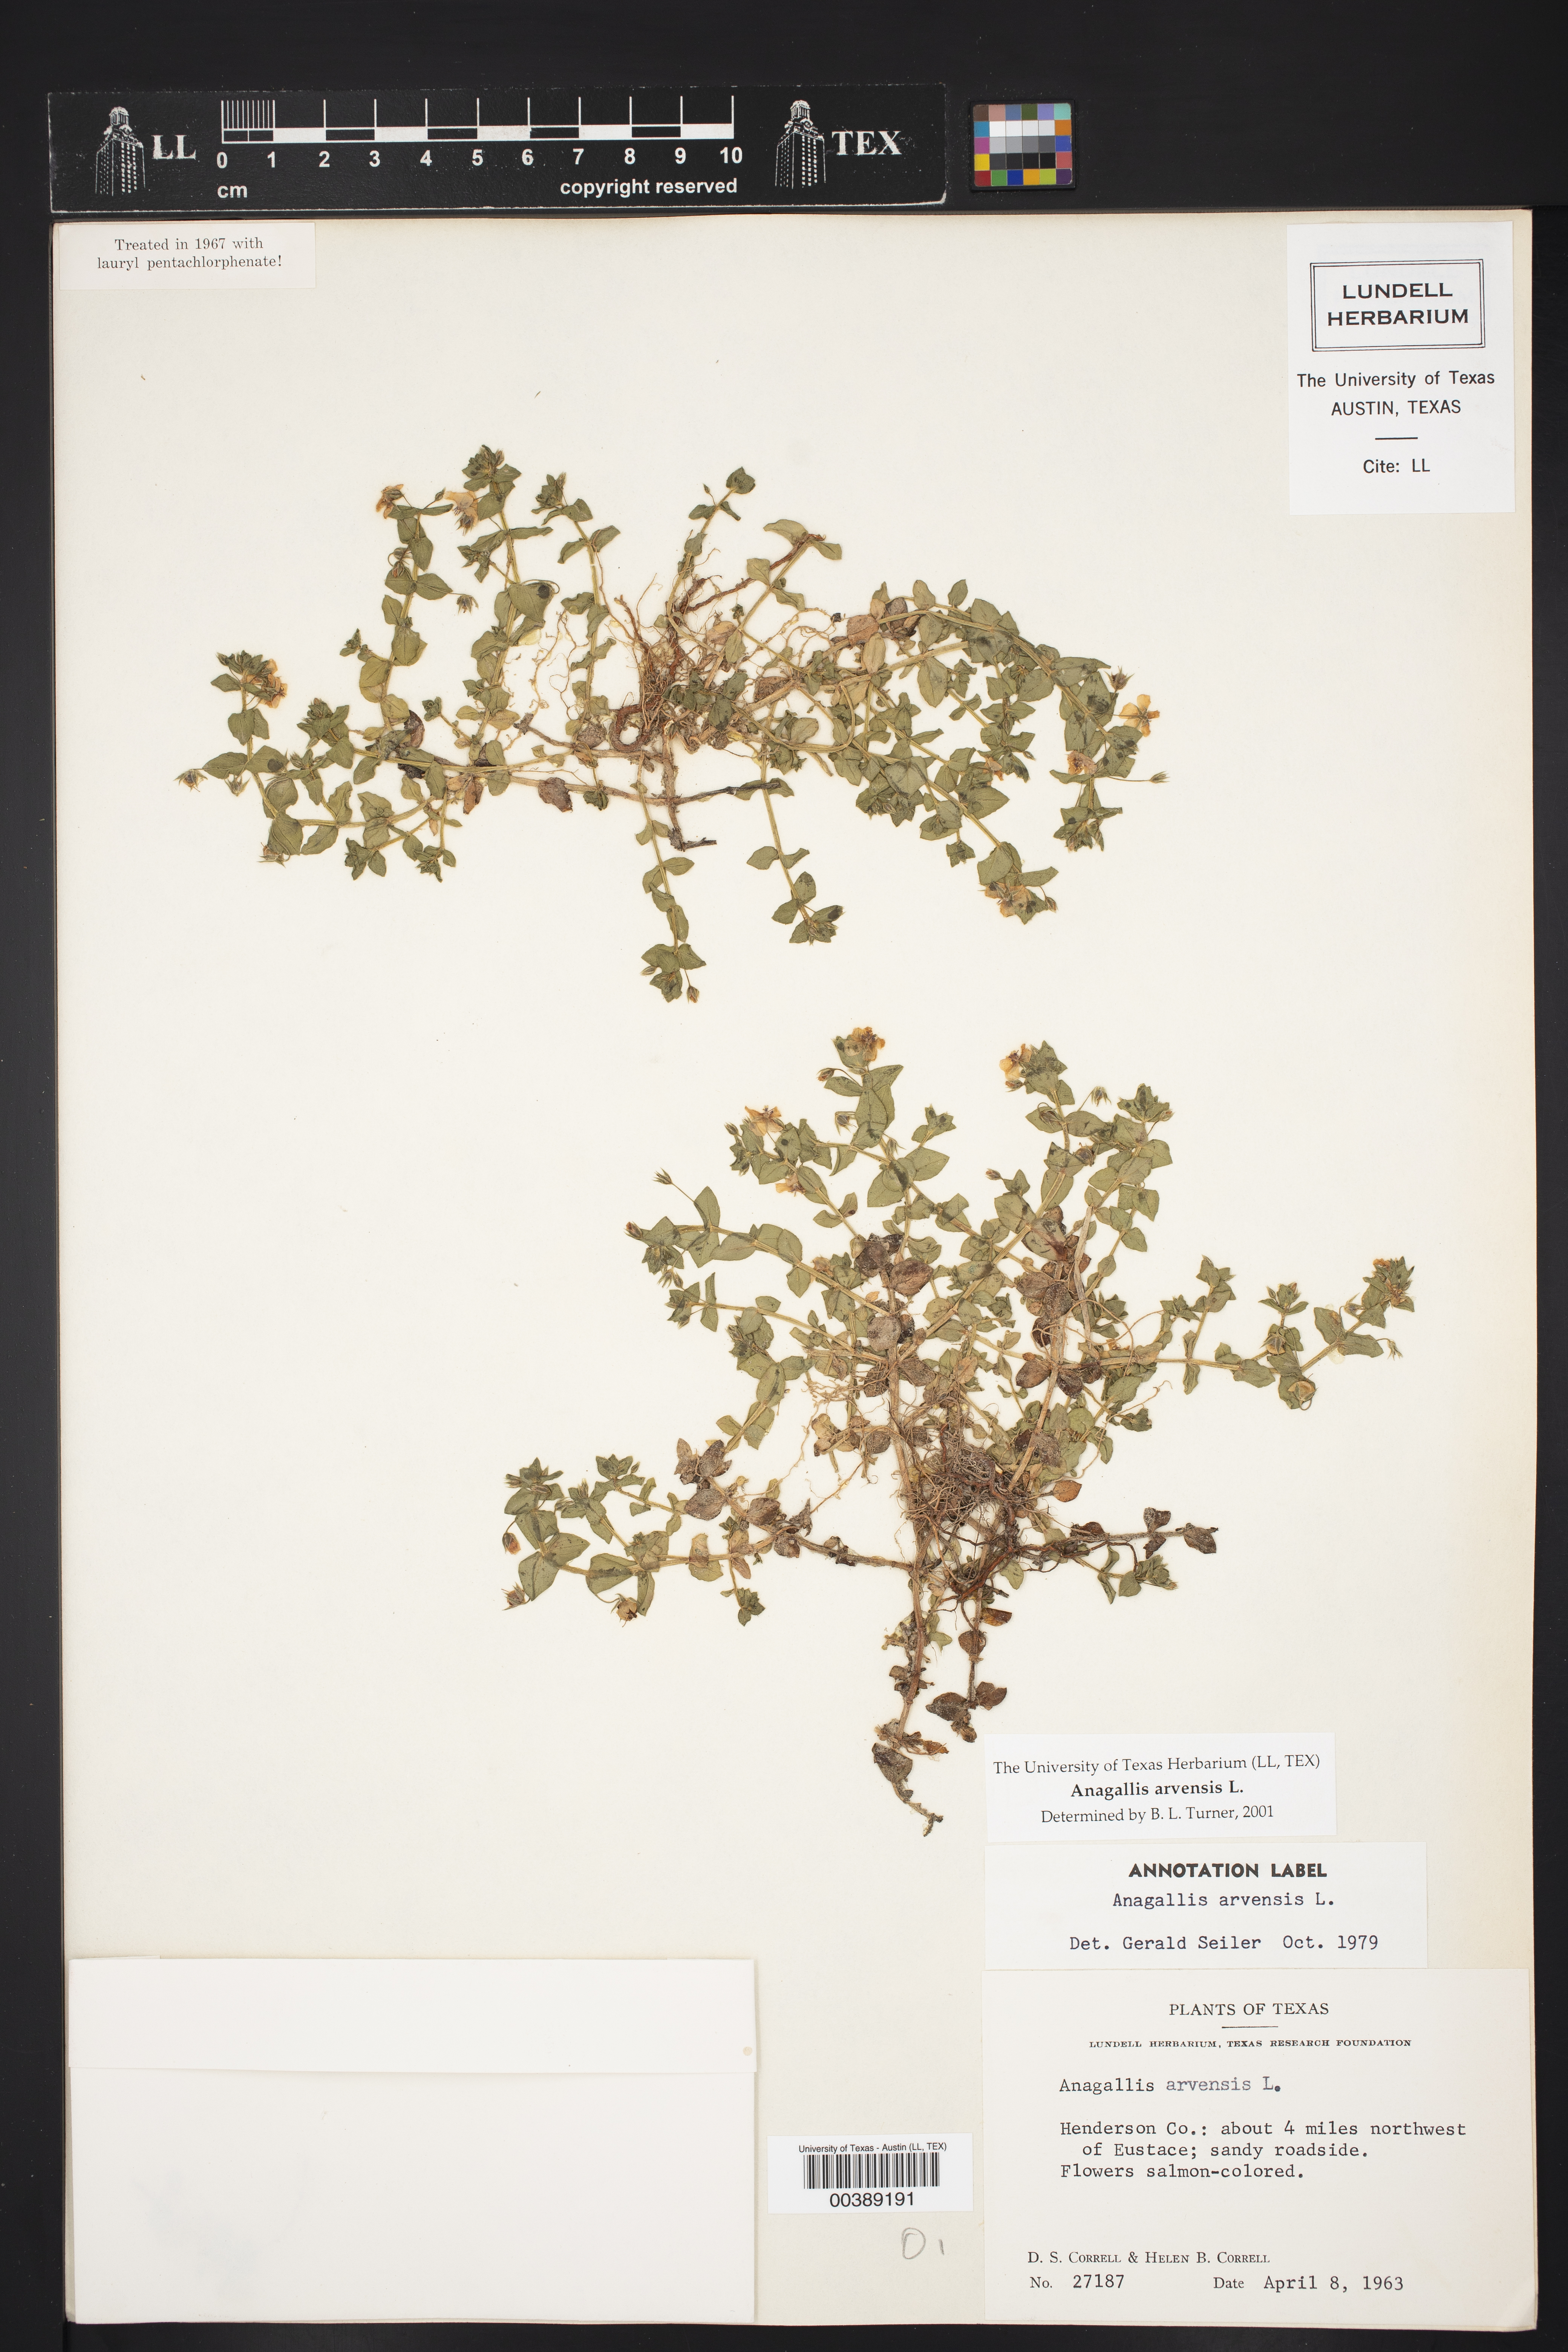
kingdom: Plantae
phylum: Tracheophyta
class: Magnoliopsida
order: Ericales
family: Primulaceae
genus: Lysimachia
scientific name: Lysimachia arvensis
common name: Scarlet pimpernel
